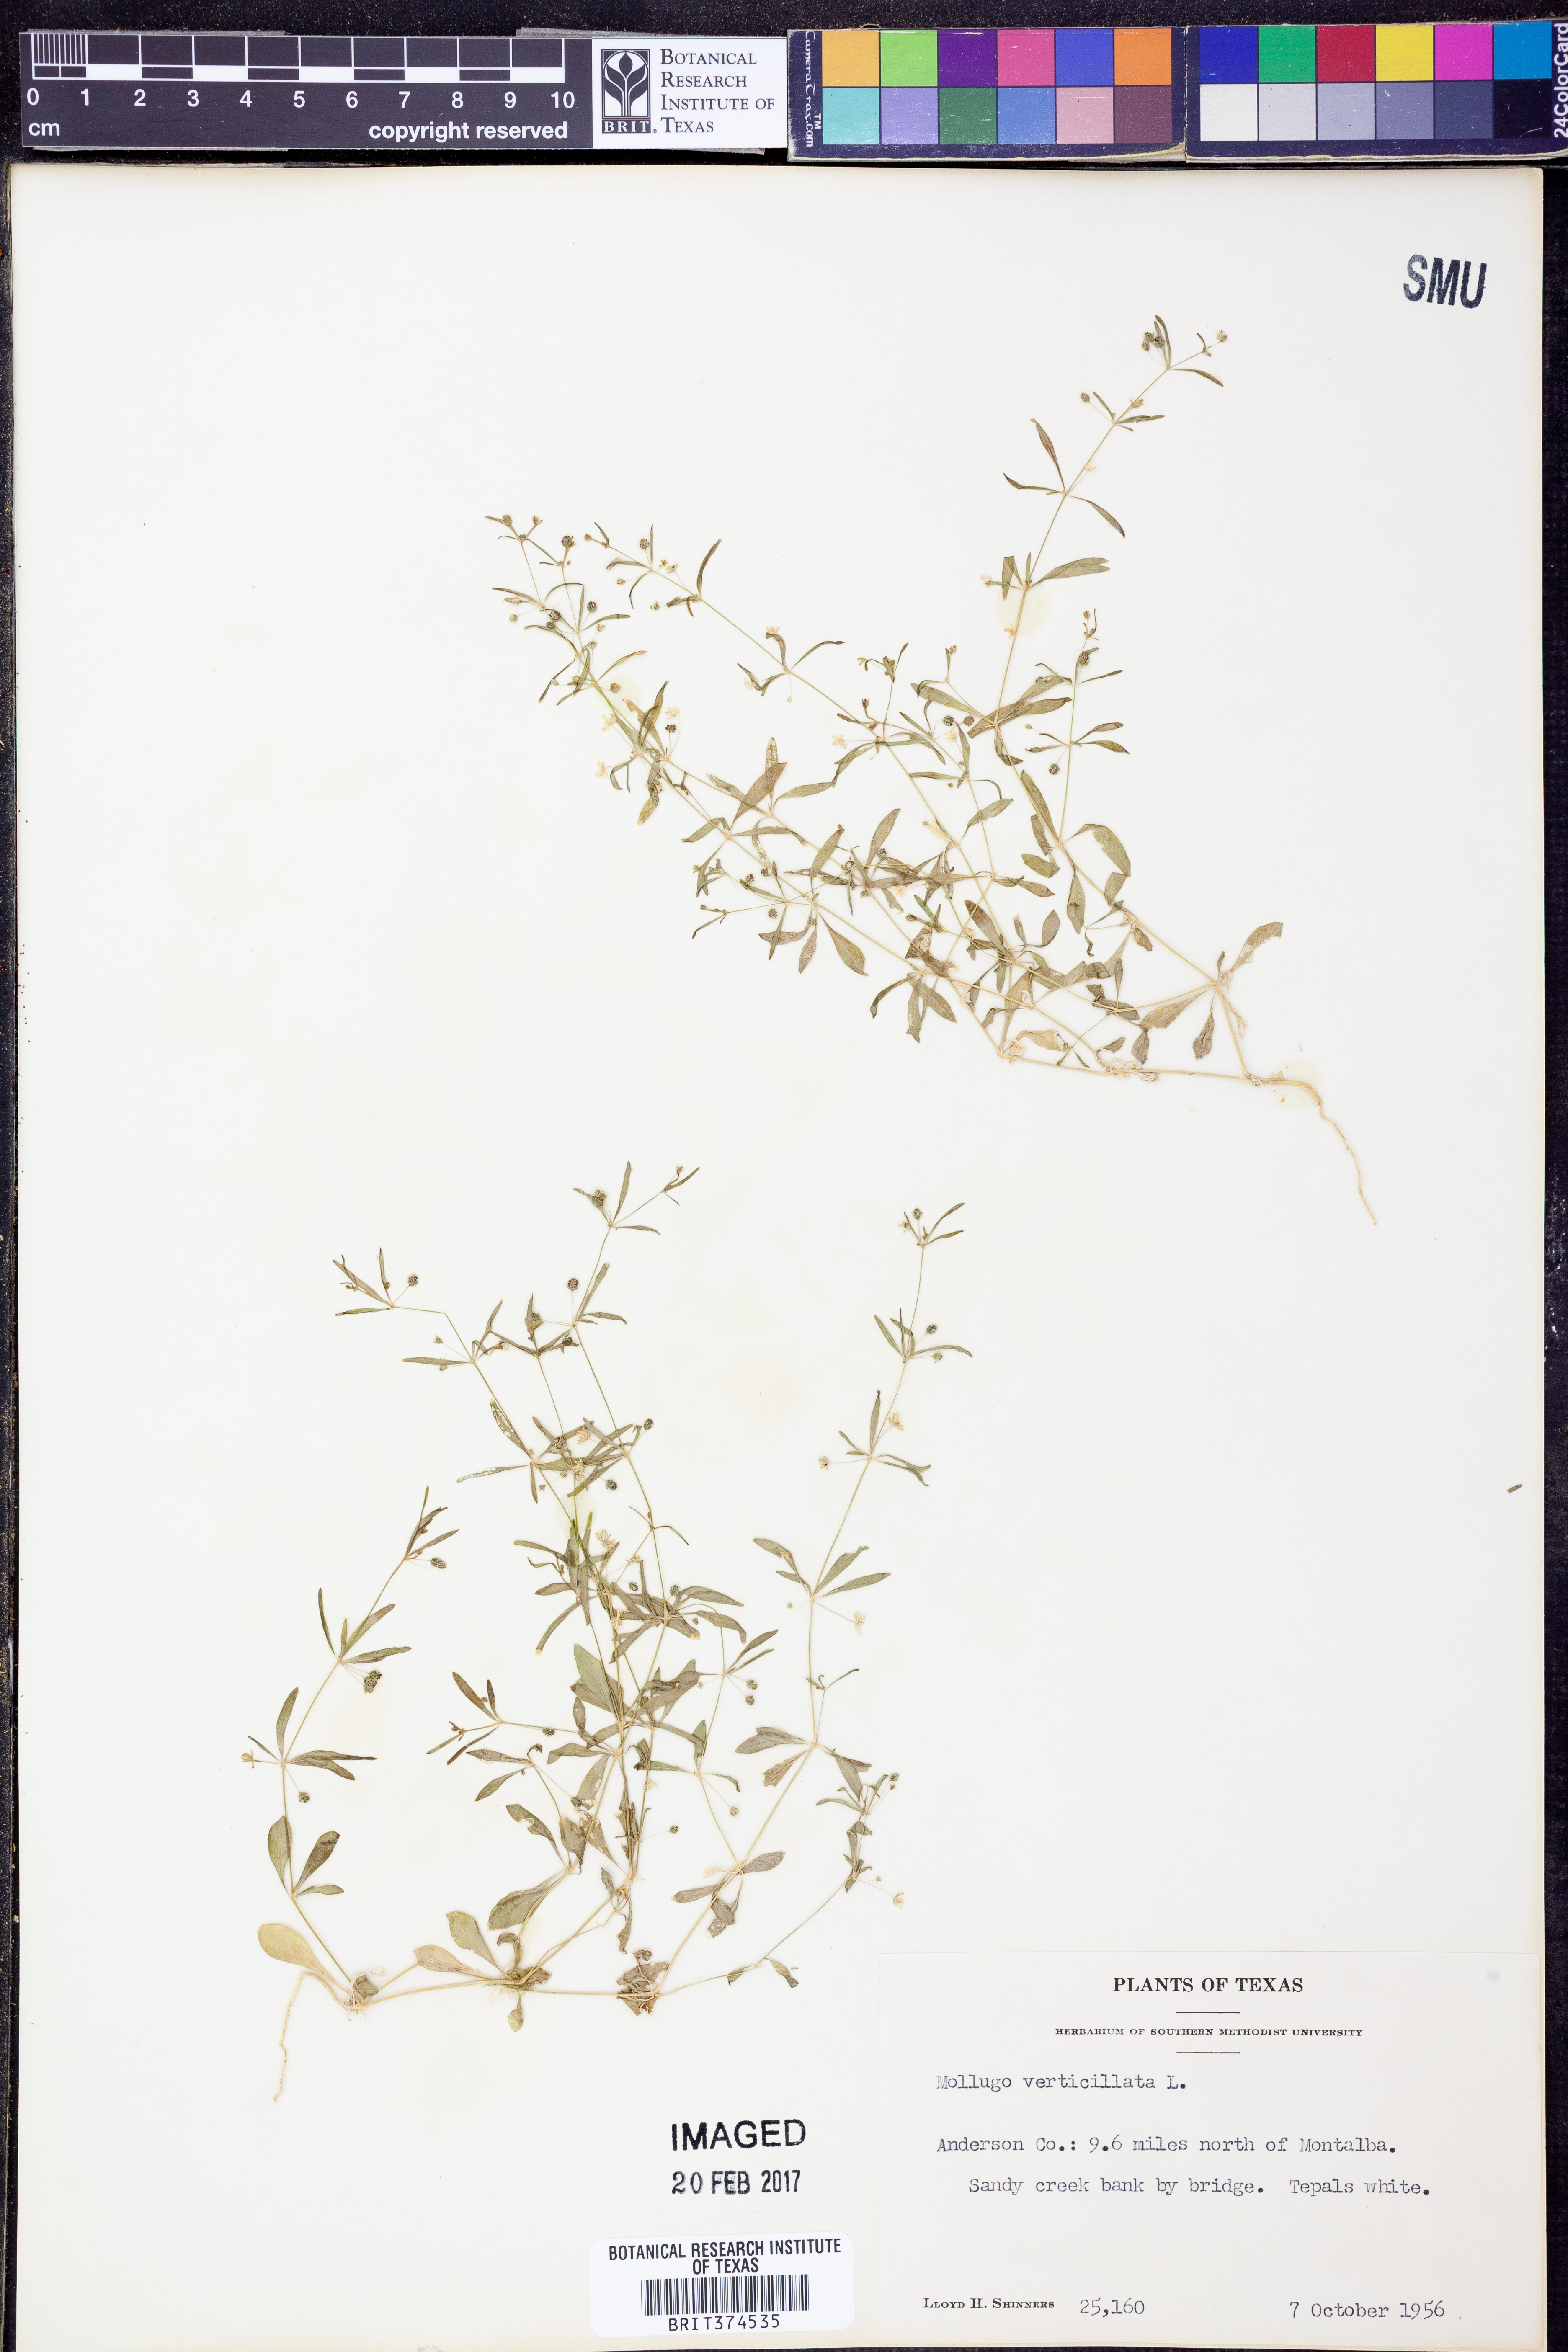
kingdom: Plantae
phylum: Tracheophyta
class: Magnoliopsida
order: Caryophyllales
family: Molluginaceae
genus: Mollugo
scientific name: Mollugo verticillata
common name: Green carpetweed
